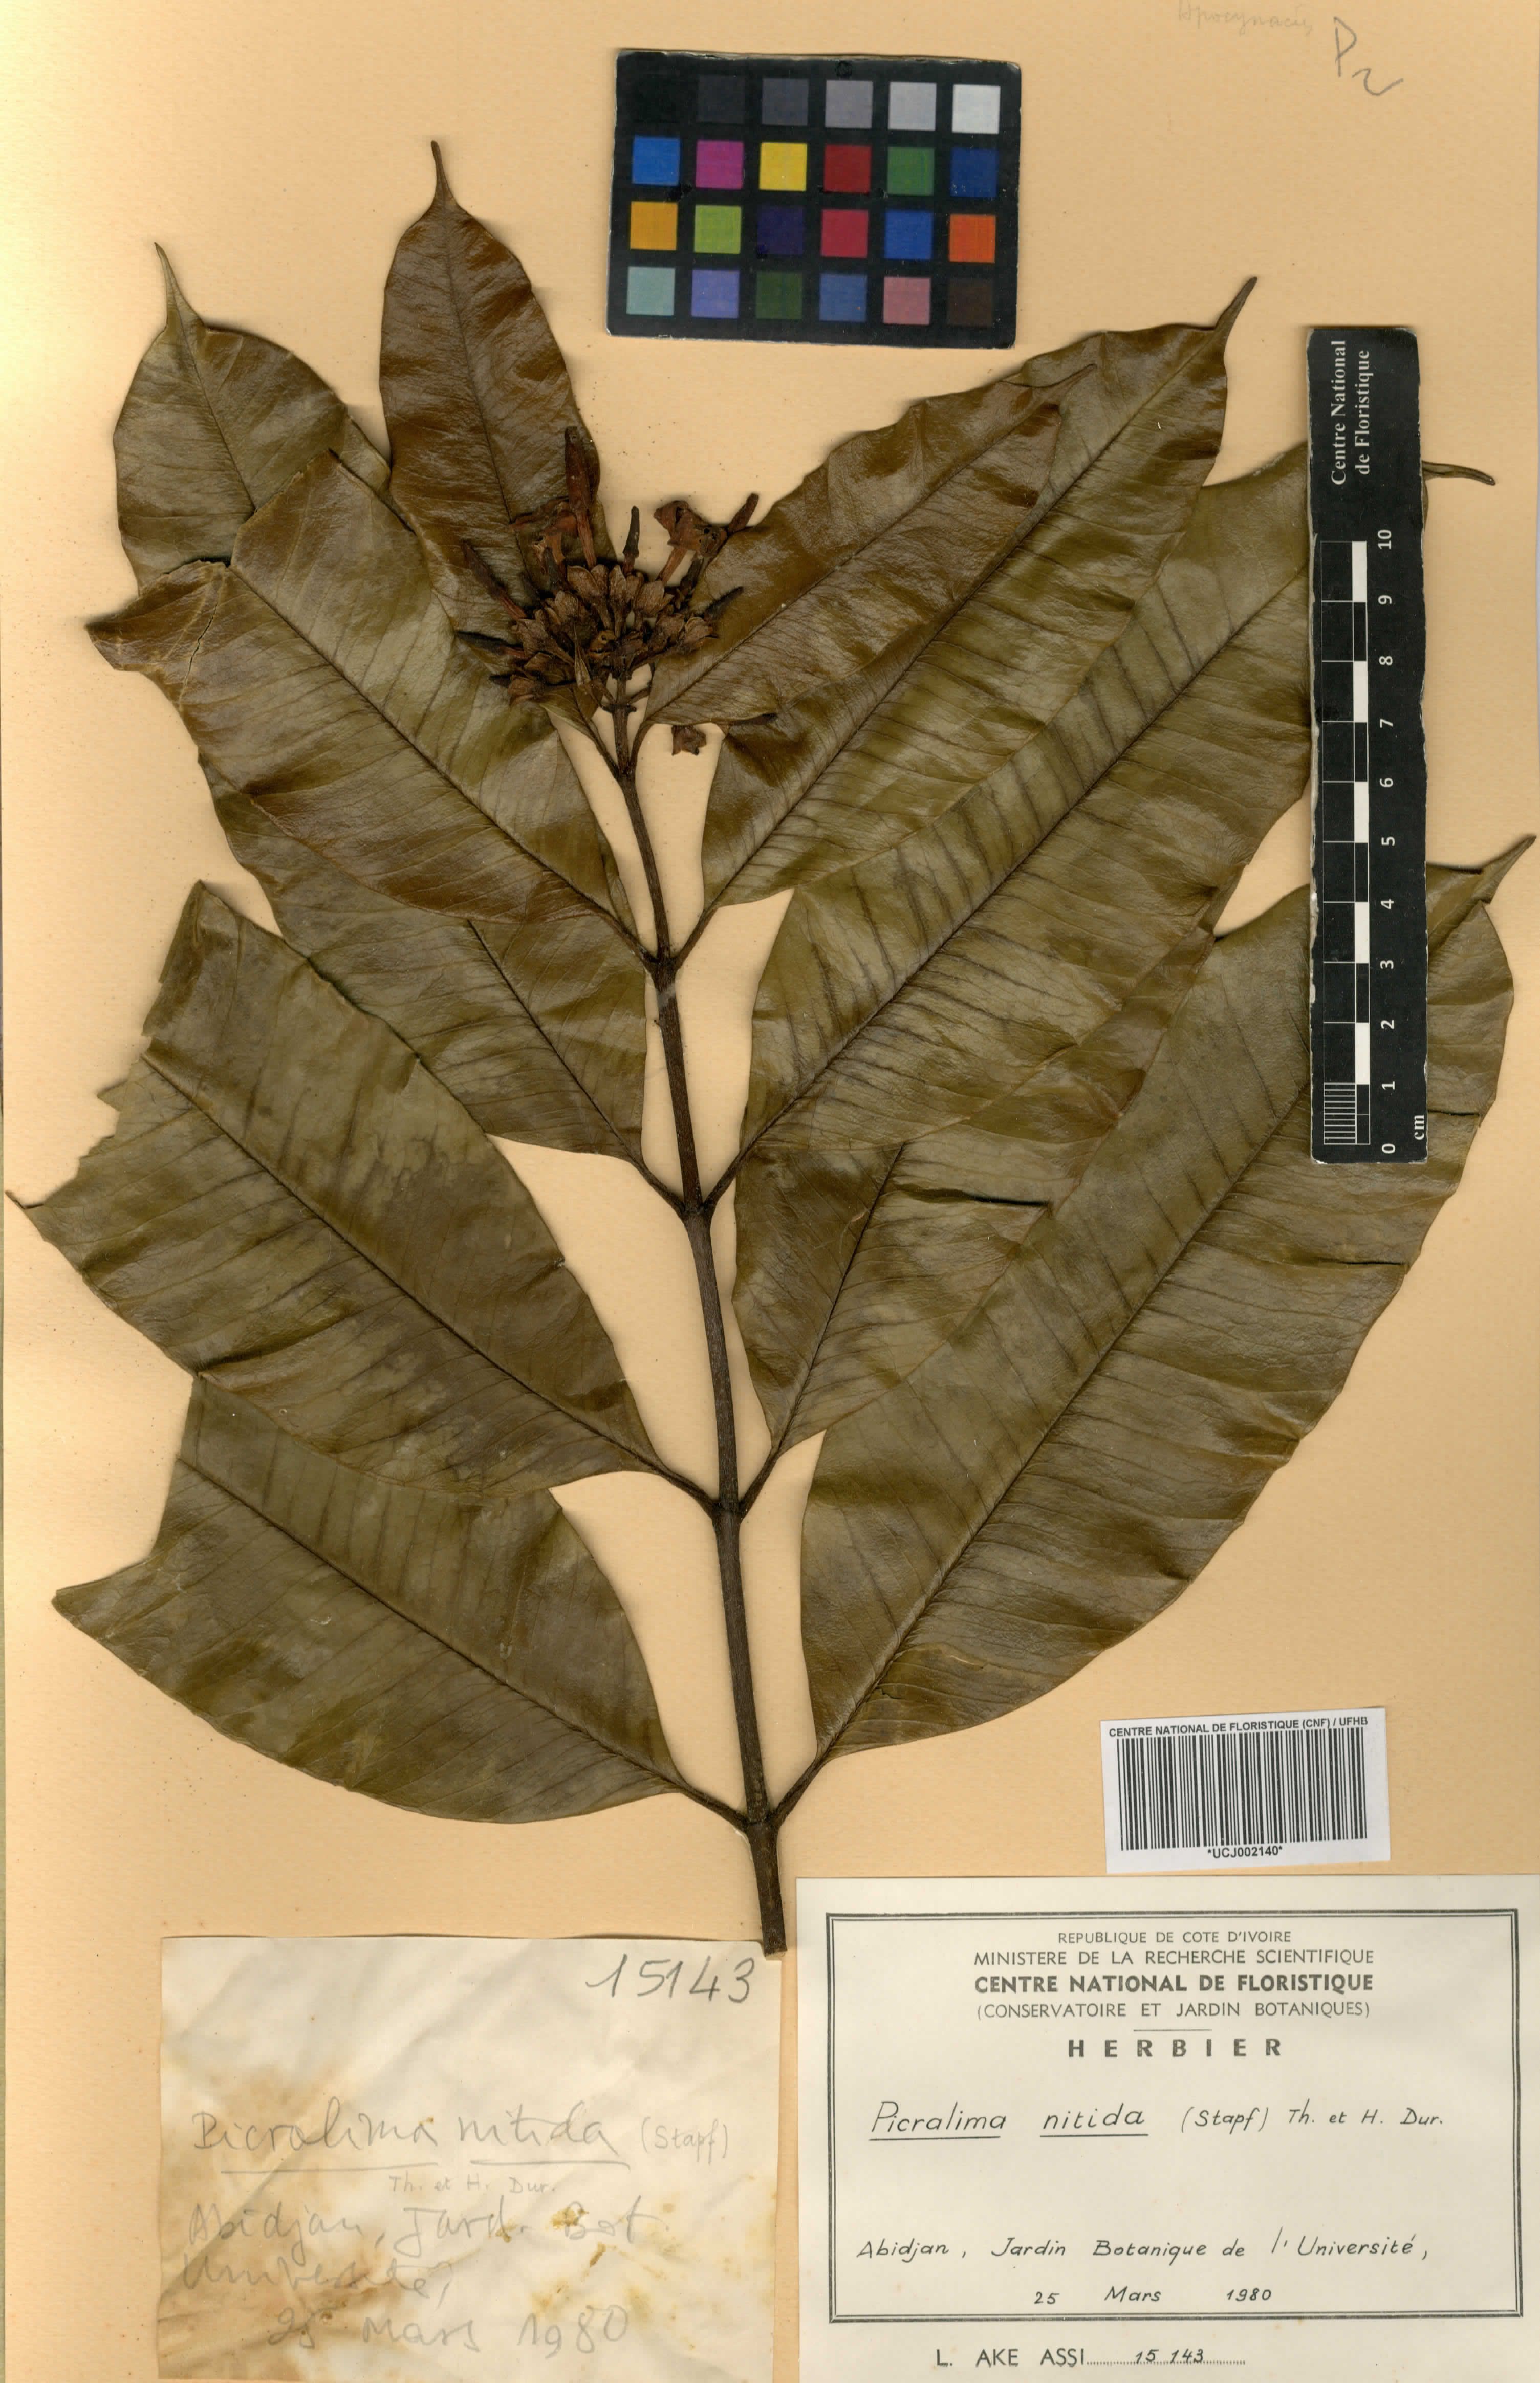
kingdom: Plantae
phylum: Tracheophyta
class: Magnoliopsida
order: Gentianales
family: Apocynaceae
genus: Picralima
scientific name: Picralima nitida
